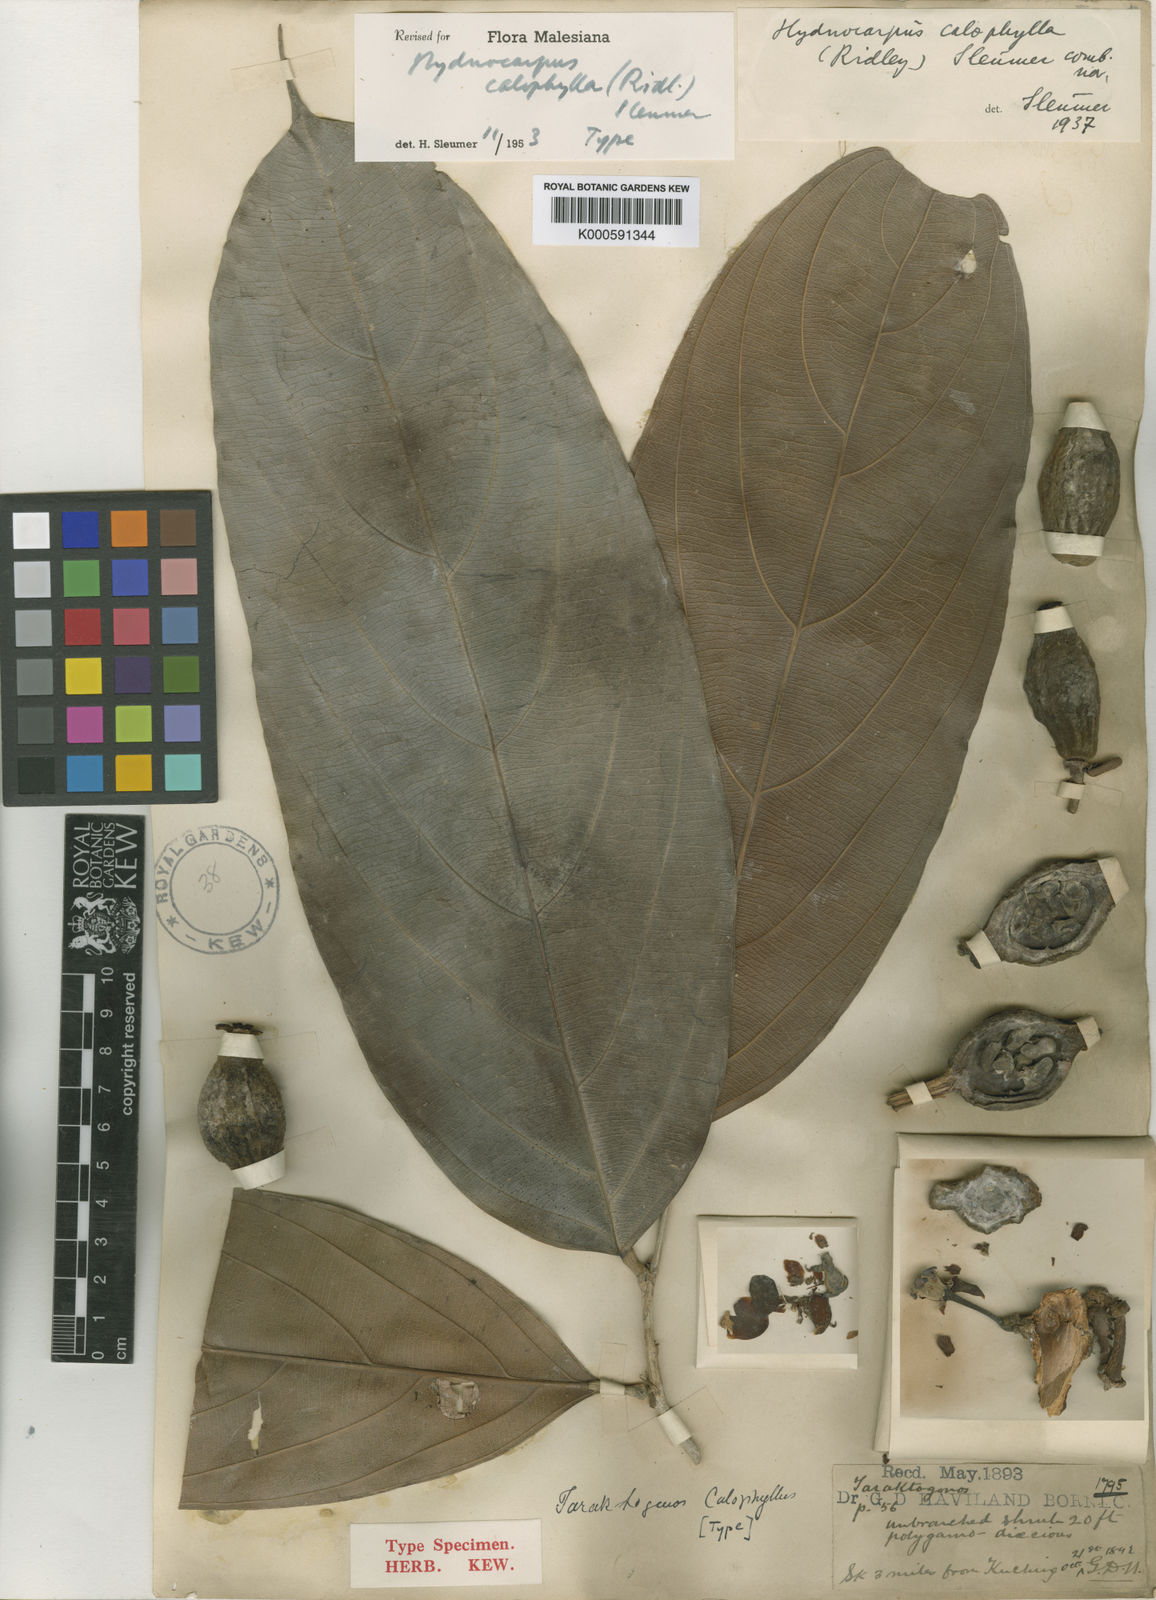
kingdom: Plantae
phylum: Tracheophyta
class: Magnoliopsida
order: Malpighiales
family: Achariaceae
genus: Hydnocarpus
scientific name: Hydnocarpus calophyllus
